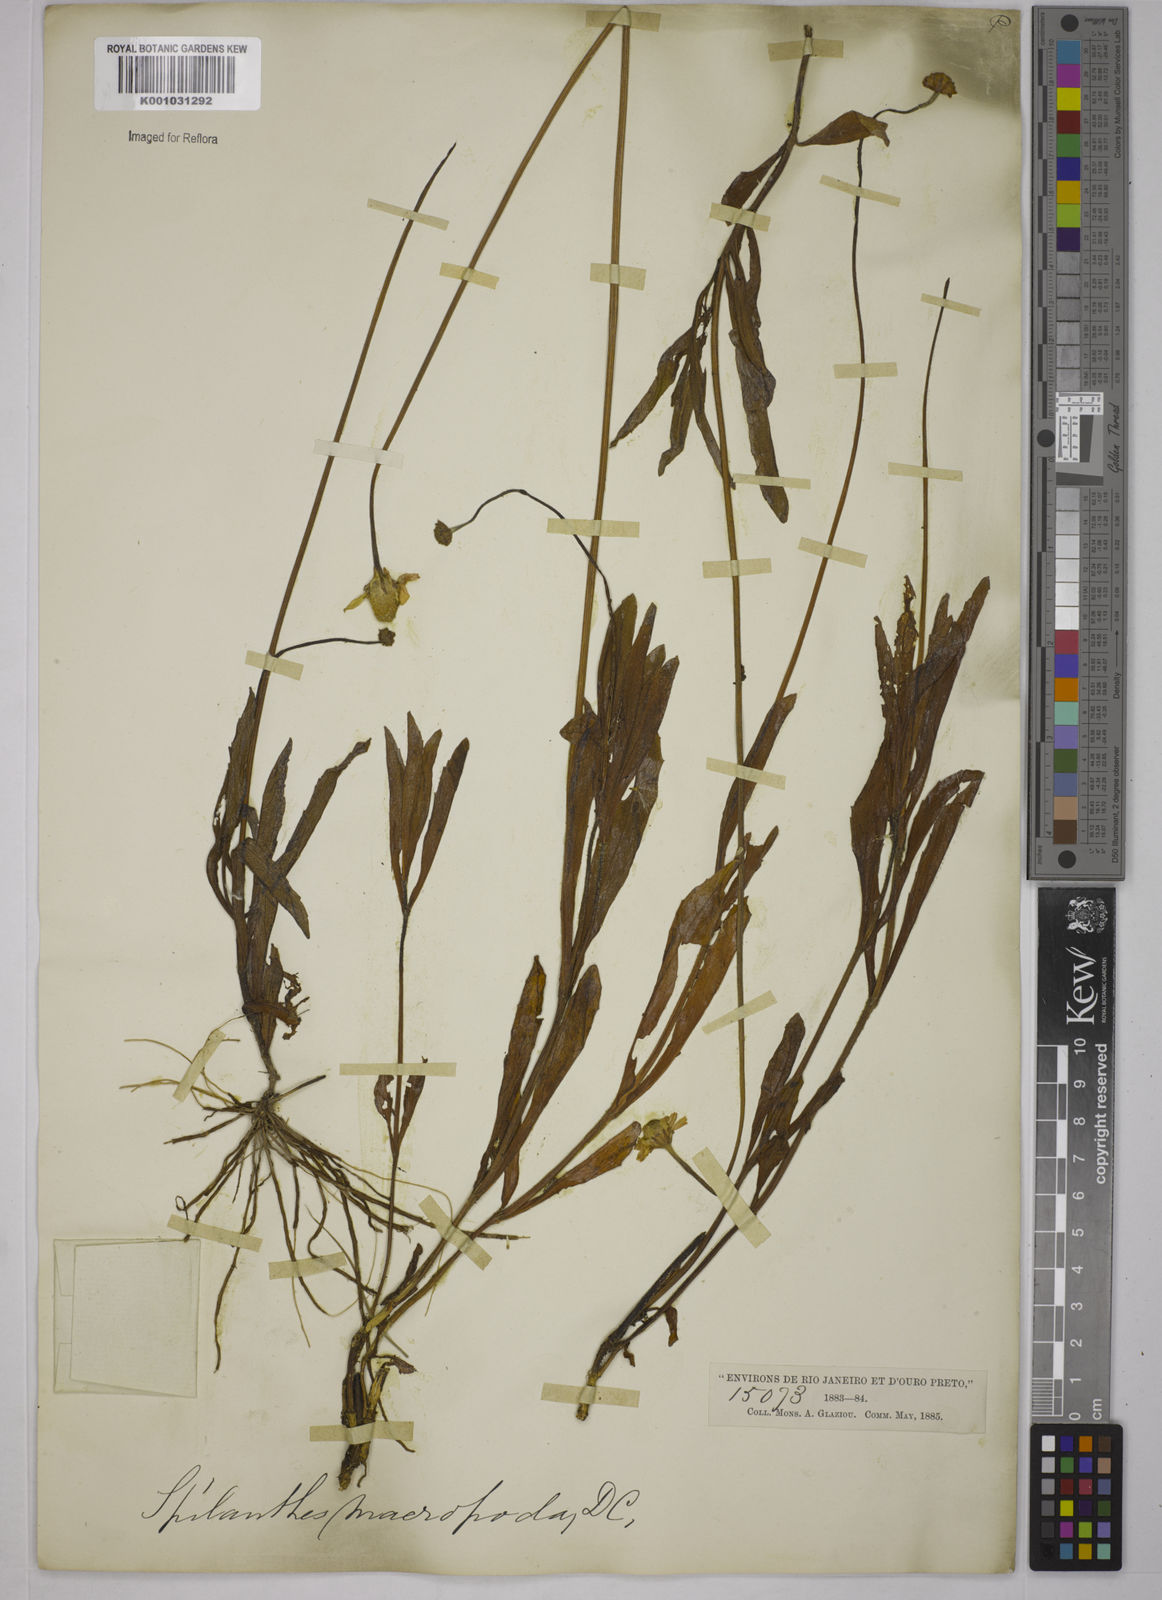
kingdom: Plantae
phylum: Tracheophyta
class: Magnoliopsida
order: Asterales
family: Asteraceae
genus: Acmella
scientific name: Acmella decumbens
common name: Creeping spotflower
